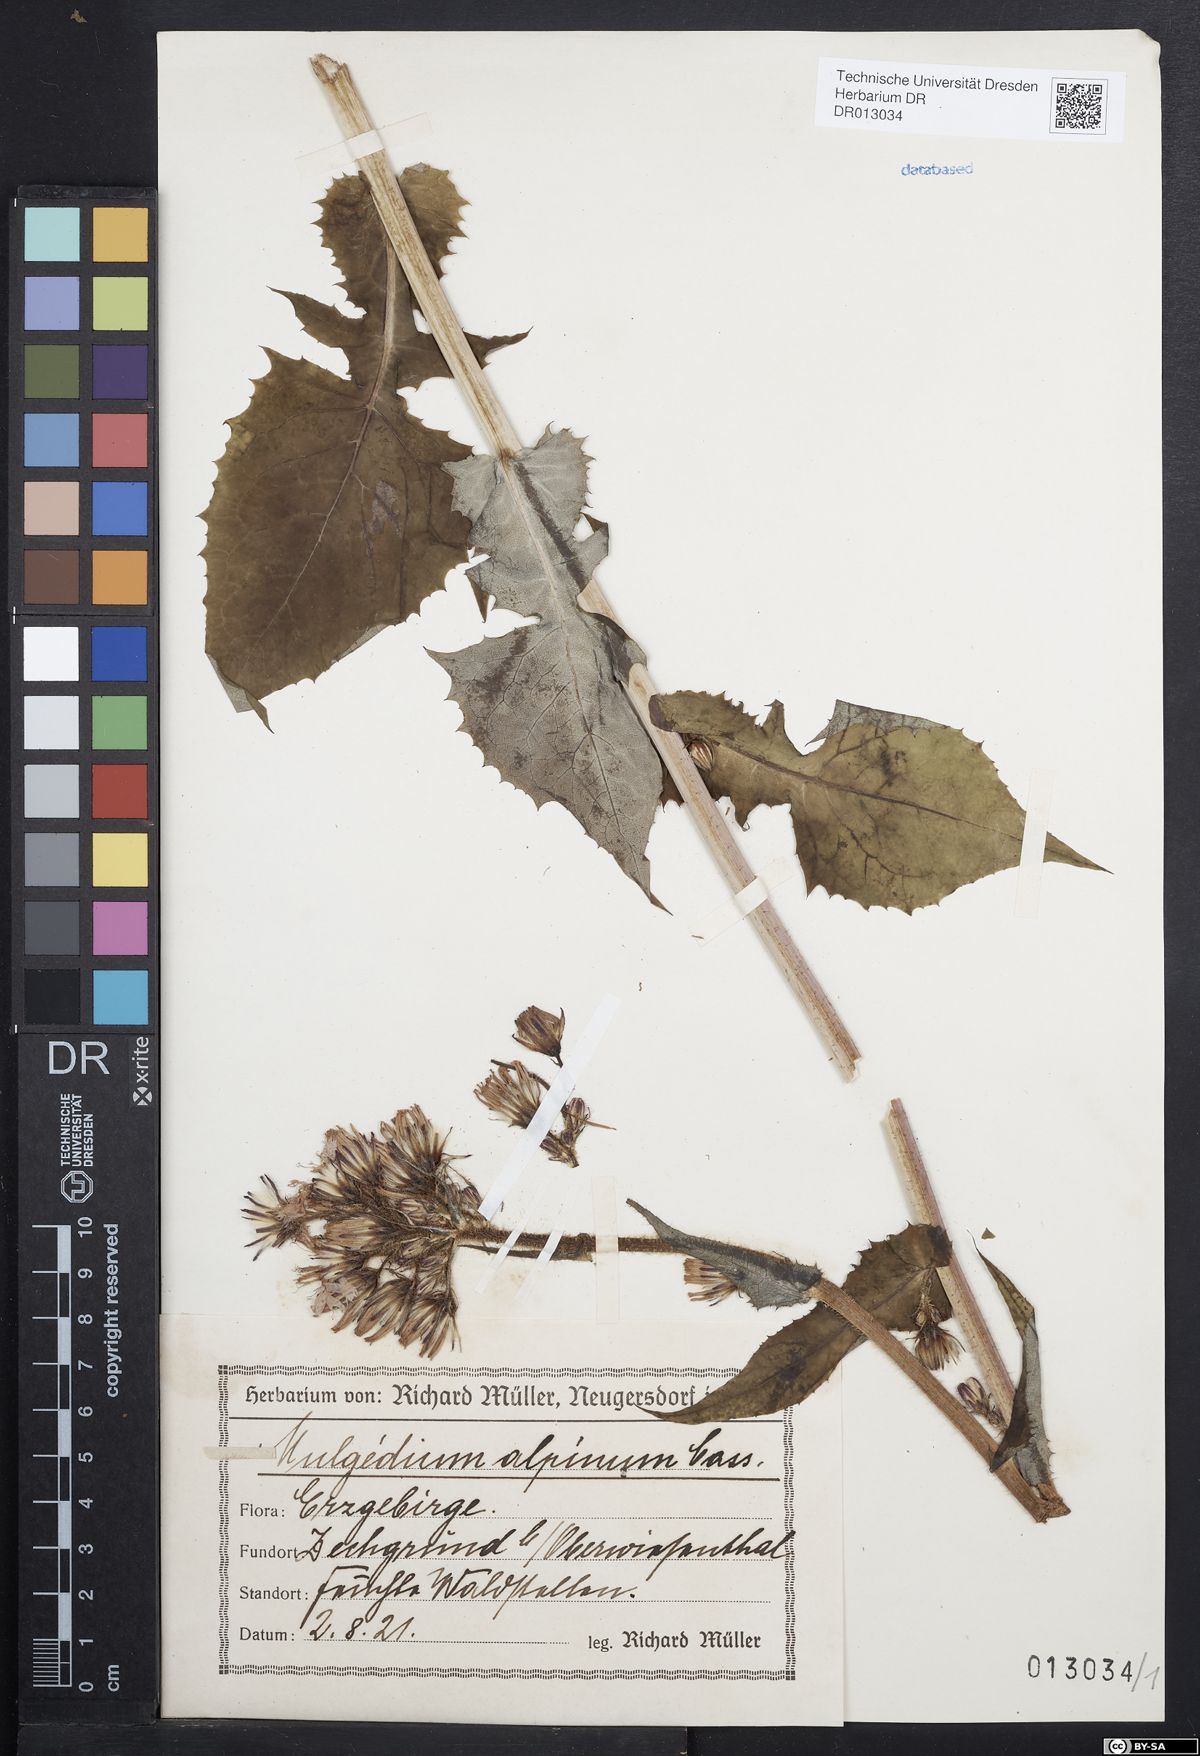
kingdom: Plantae
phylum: Tracheophyta
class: Magnoliopsida
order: Asterales
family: Asteraceae
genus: Cicerbita
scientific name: Cicerbita alpina
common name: Alpine blue-sow-thistle
